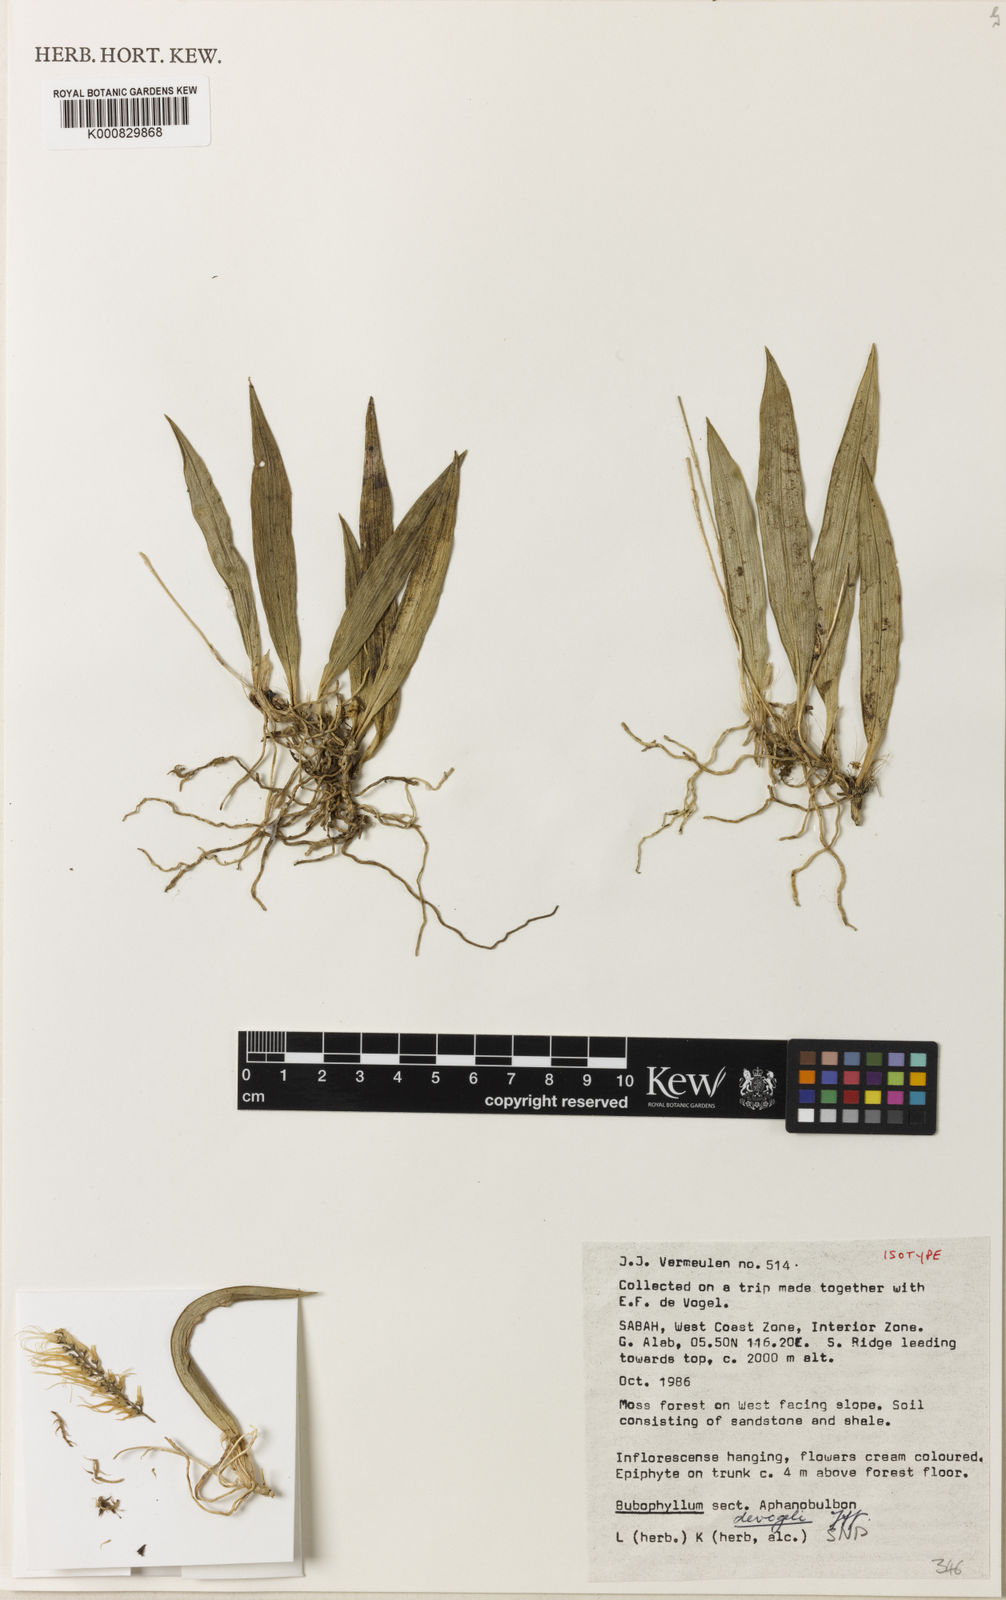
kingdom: Plantae
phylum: Tracheophyta
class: Liliopsida
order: Asparagales
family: Orchidaceae
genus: Bulbophyllum
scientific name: Bulbophyllum devogelii
